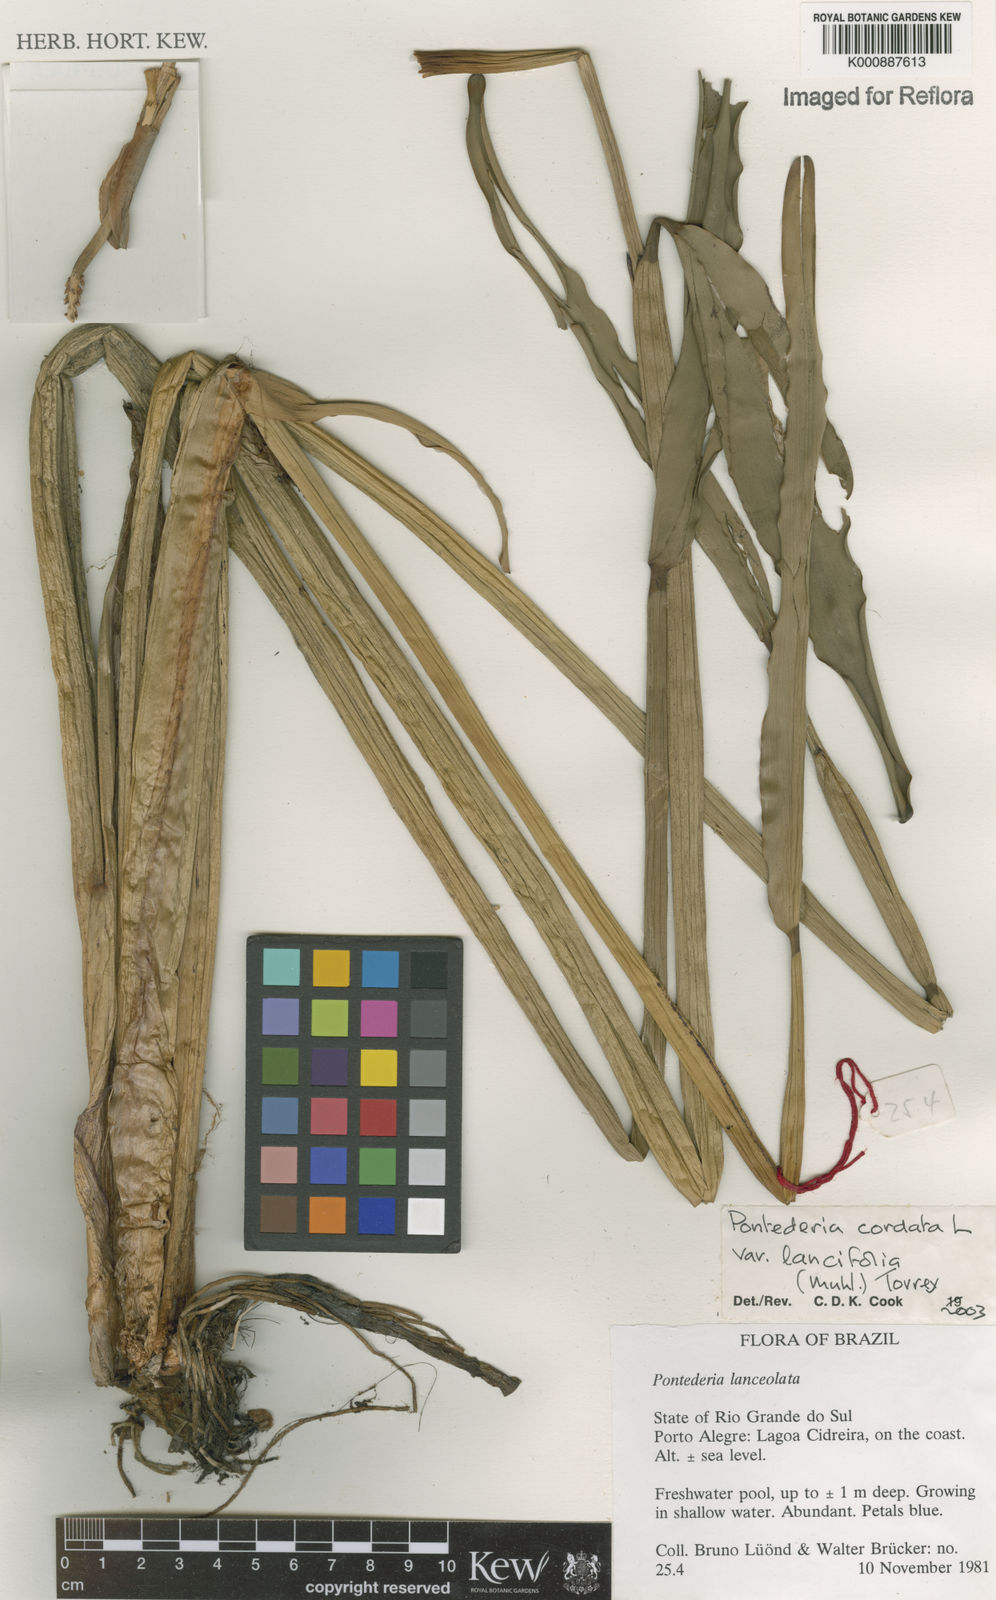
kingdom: Plantae
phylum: Tracheophyta
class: Liliopsida
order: Commelinales
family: Pontederiaceae
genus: Pontederia
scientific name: Pontederia cordata
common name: Pickerelweed
